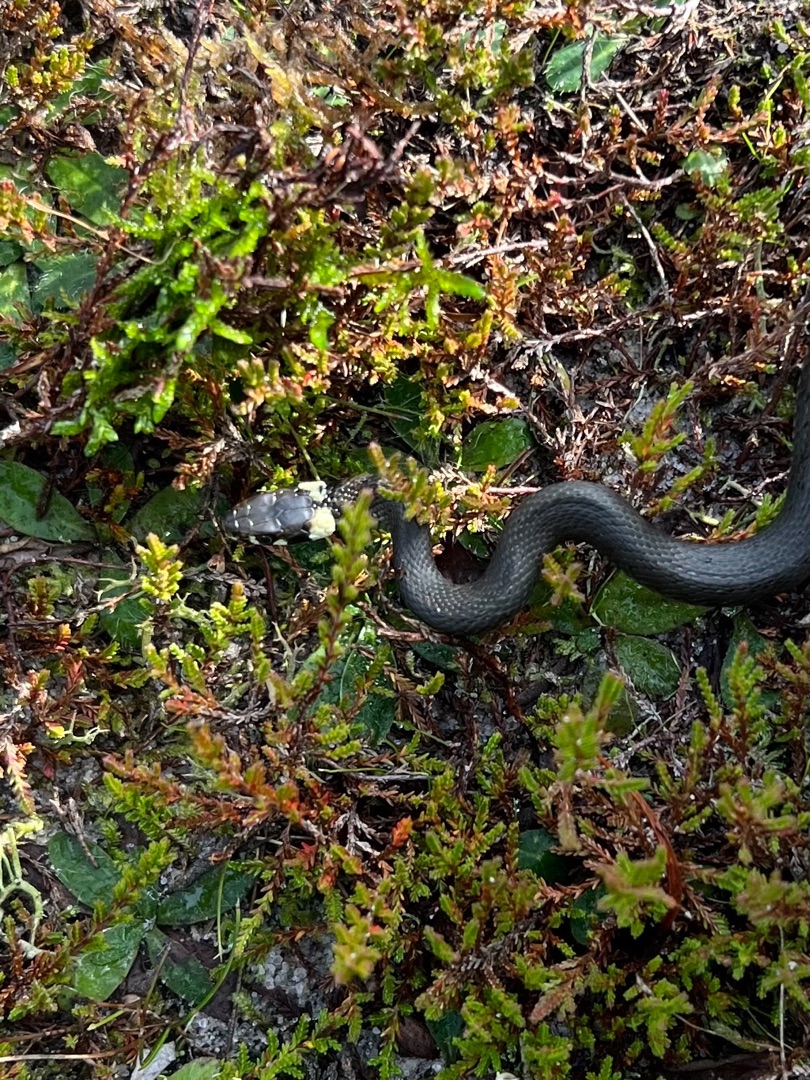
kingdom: Animalia
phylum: Chordata
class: Squamata
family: Colubridae
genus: Natrix
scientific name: Natrix natrix
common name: Snog
